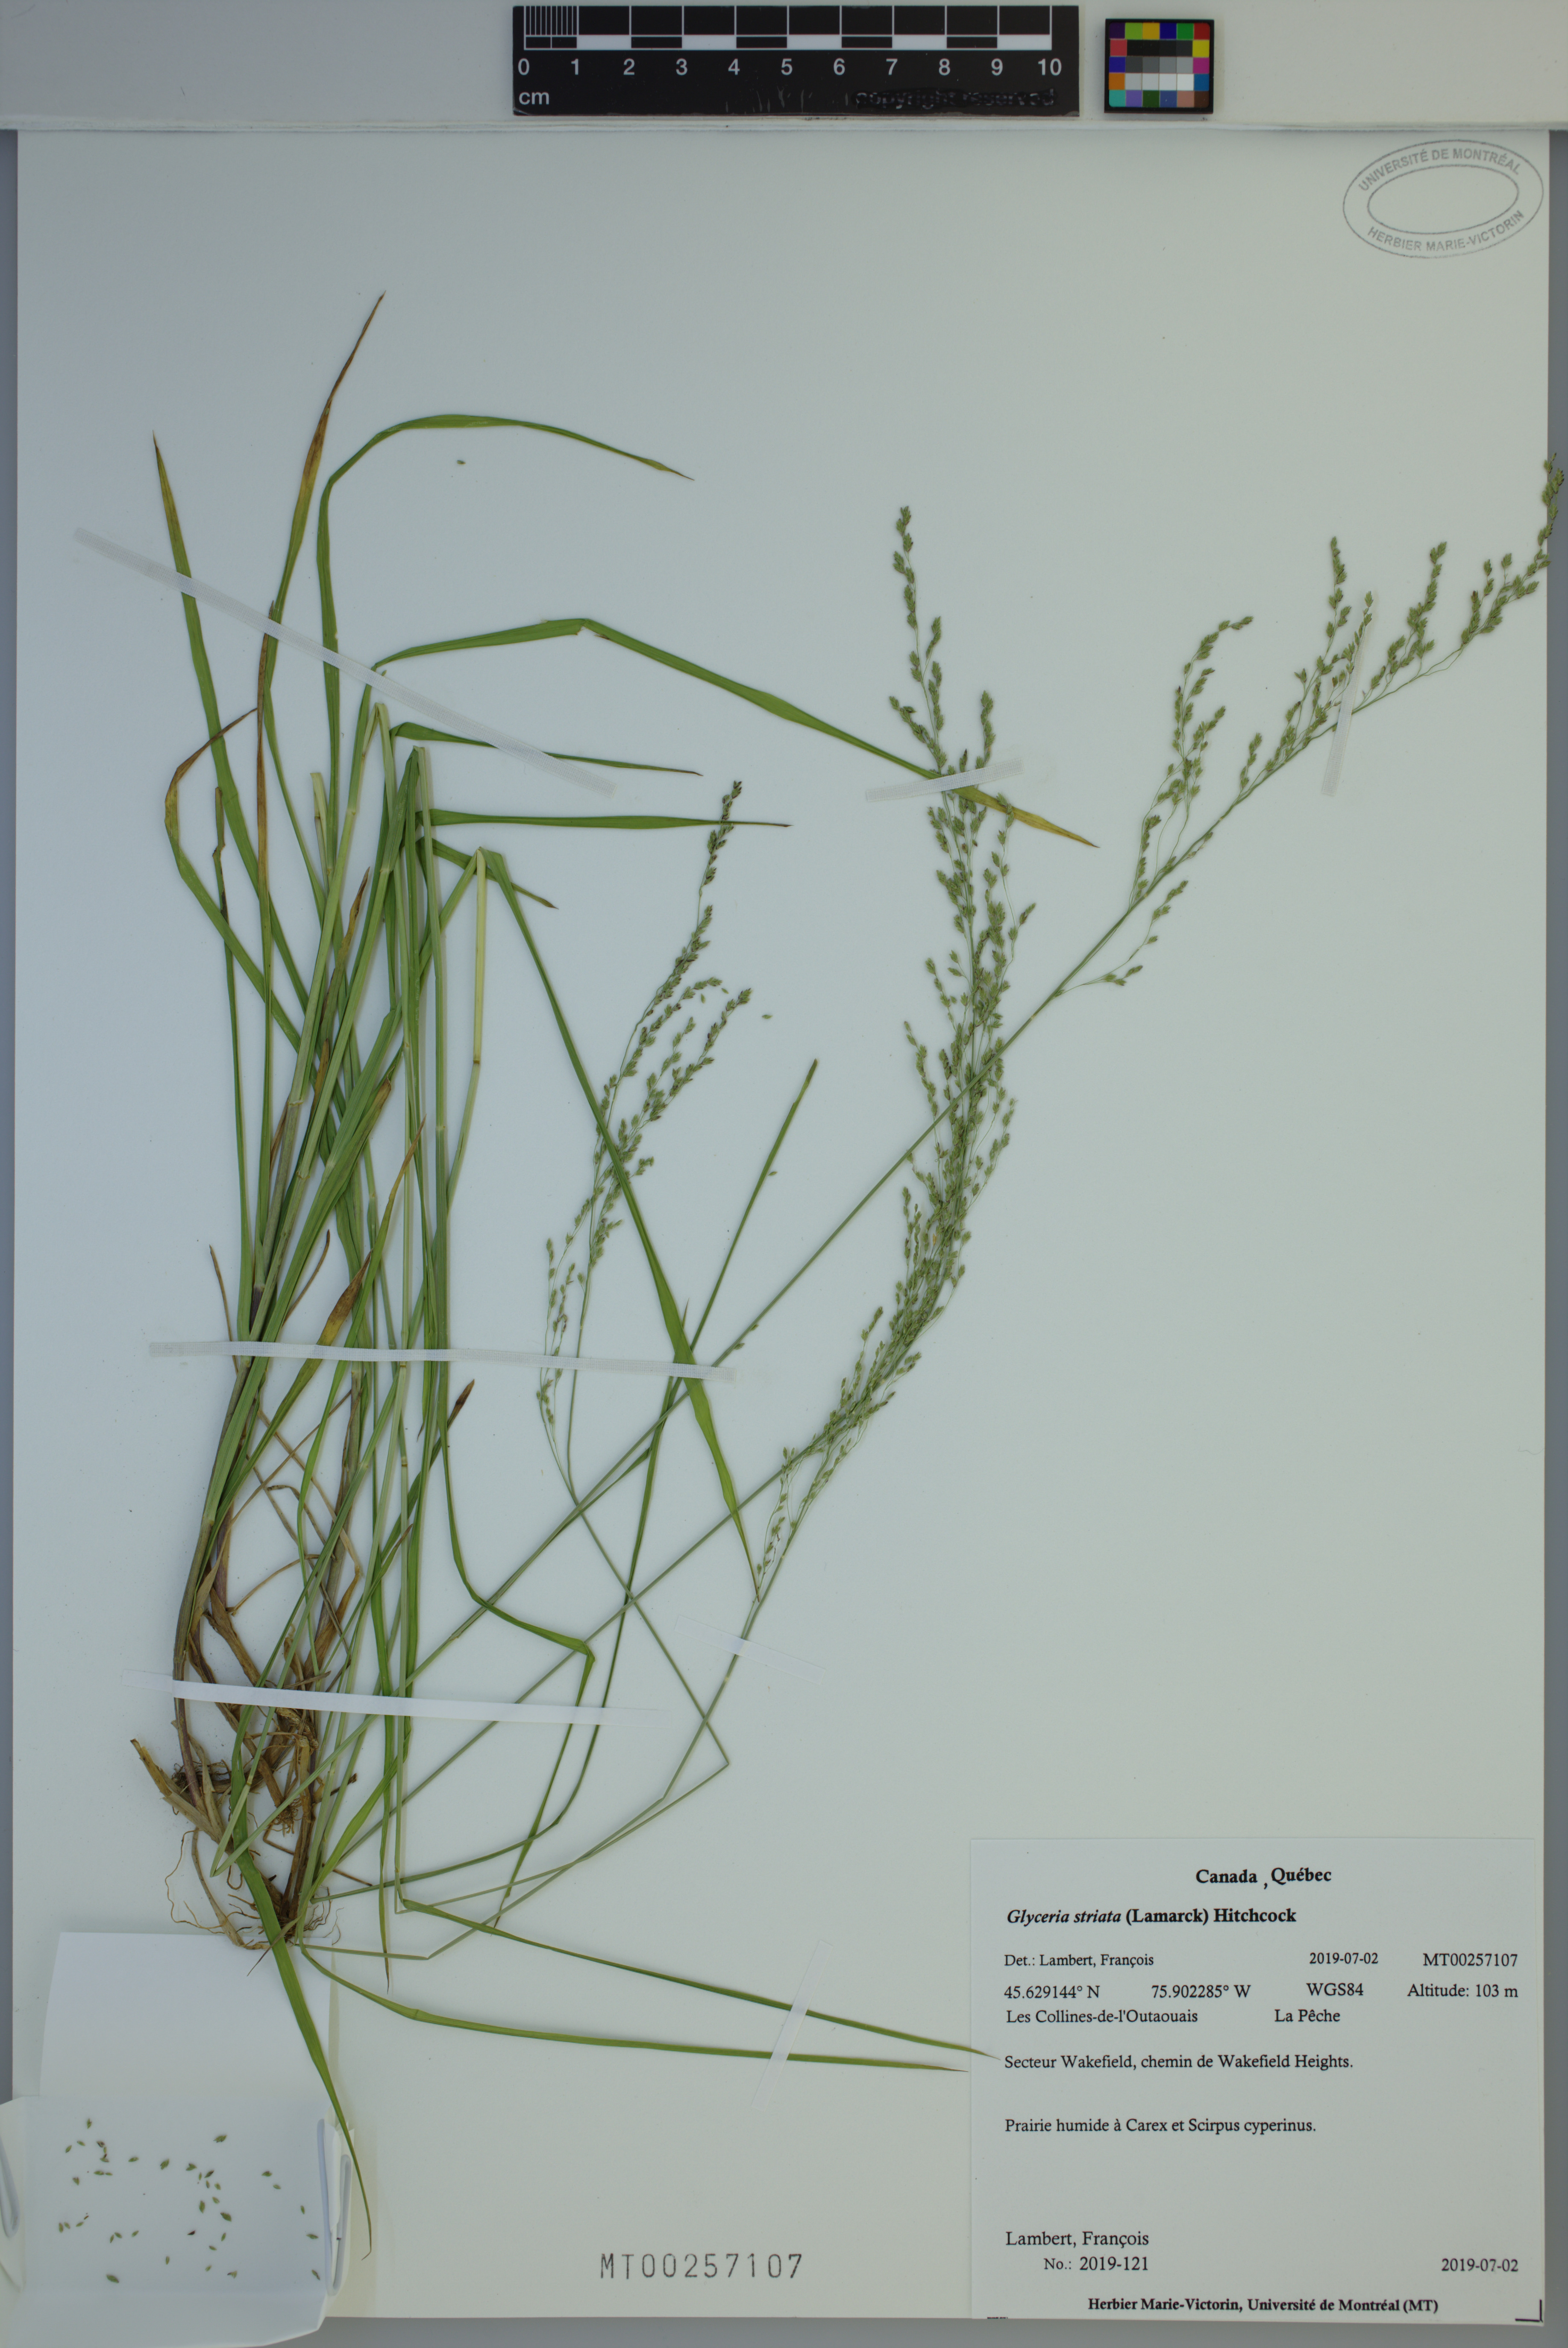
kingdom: Plantae
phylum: Tracheophyta
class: Liliopsida
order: Poales
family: Poaceae
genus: Glyceria
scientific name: Glyceria striata
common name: Fowl manna grass
